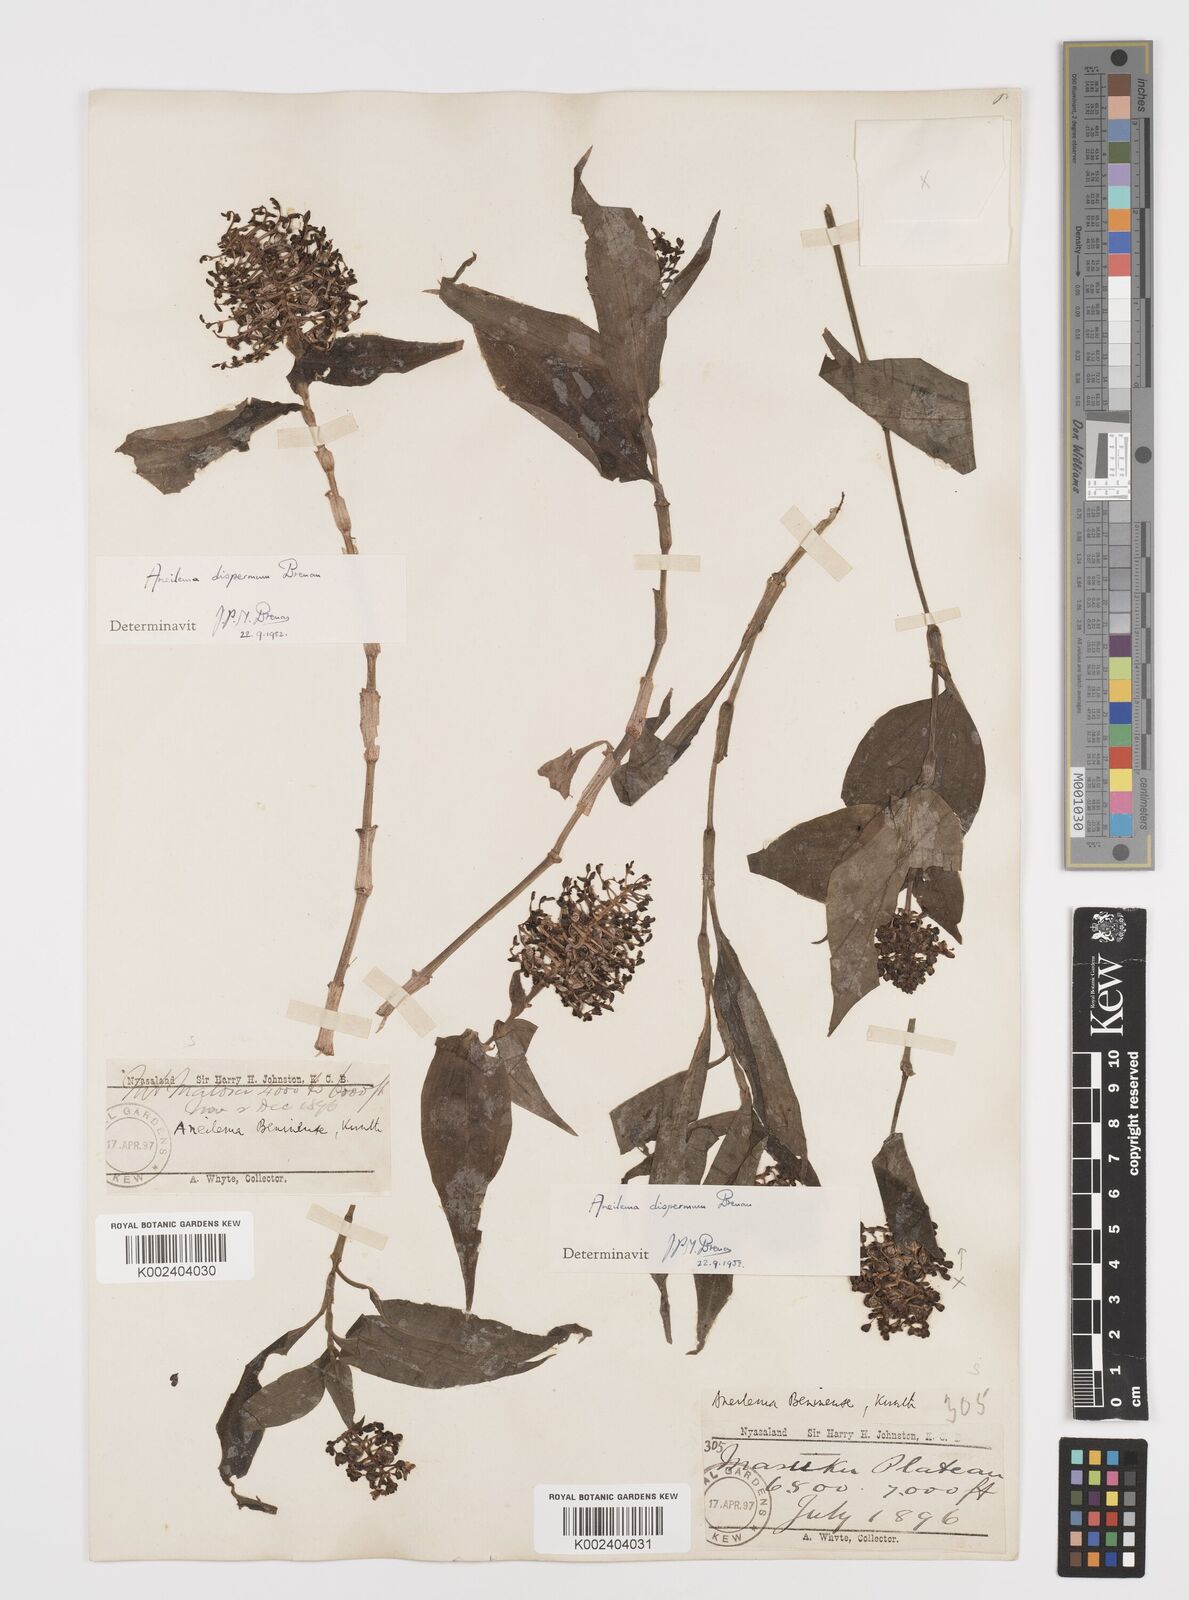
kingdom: Plantae
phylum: Tracheophyta
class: Liliopsida
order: Commelinales
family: Commelinaceae
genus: Aneilema
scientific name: Aneilema dispermum
